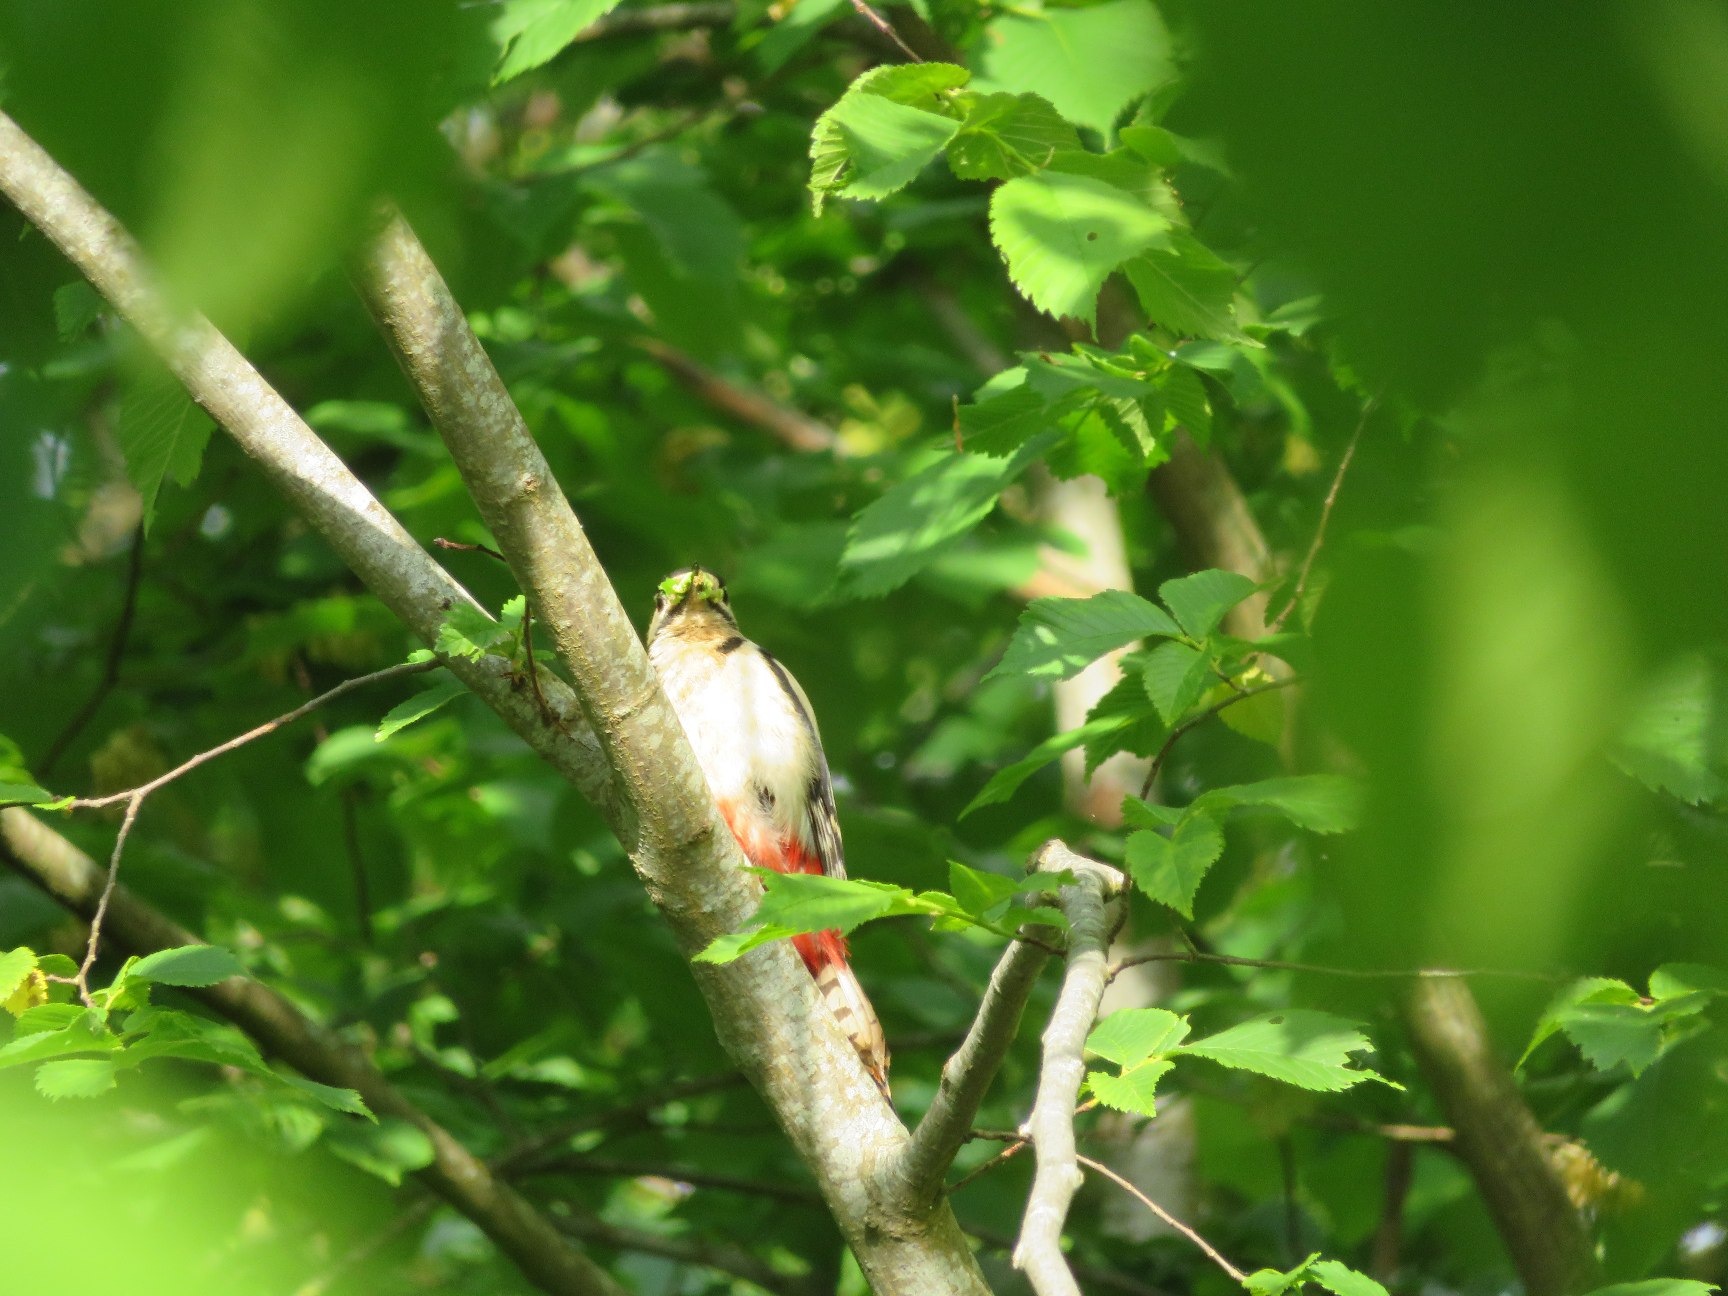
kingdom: Animalia
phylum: Chordata
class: Aves
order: Piciformes
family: Picidae
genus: Dendrocopos
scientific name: Dendrocopos major
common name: Stor flagspætte
